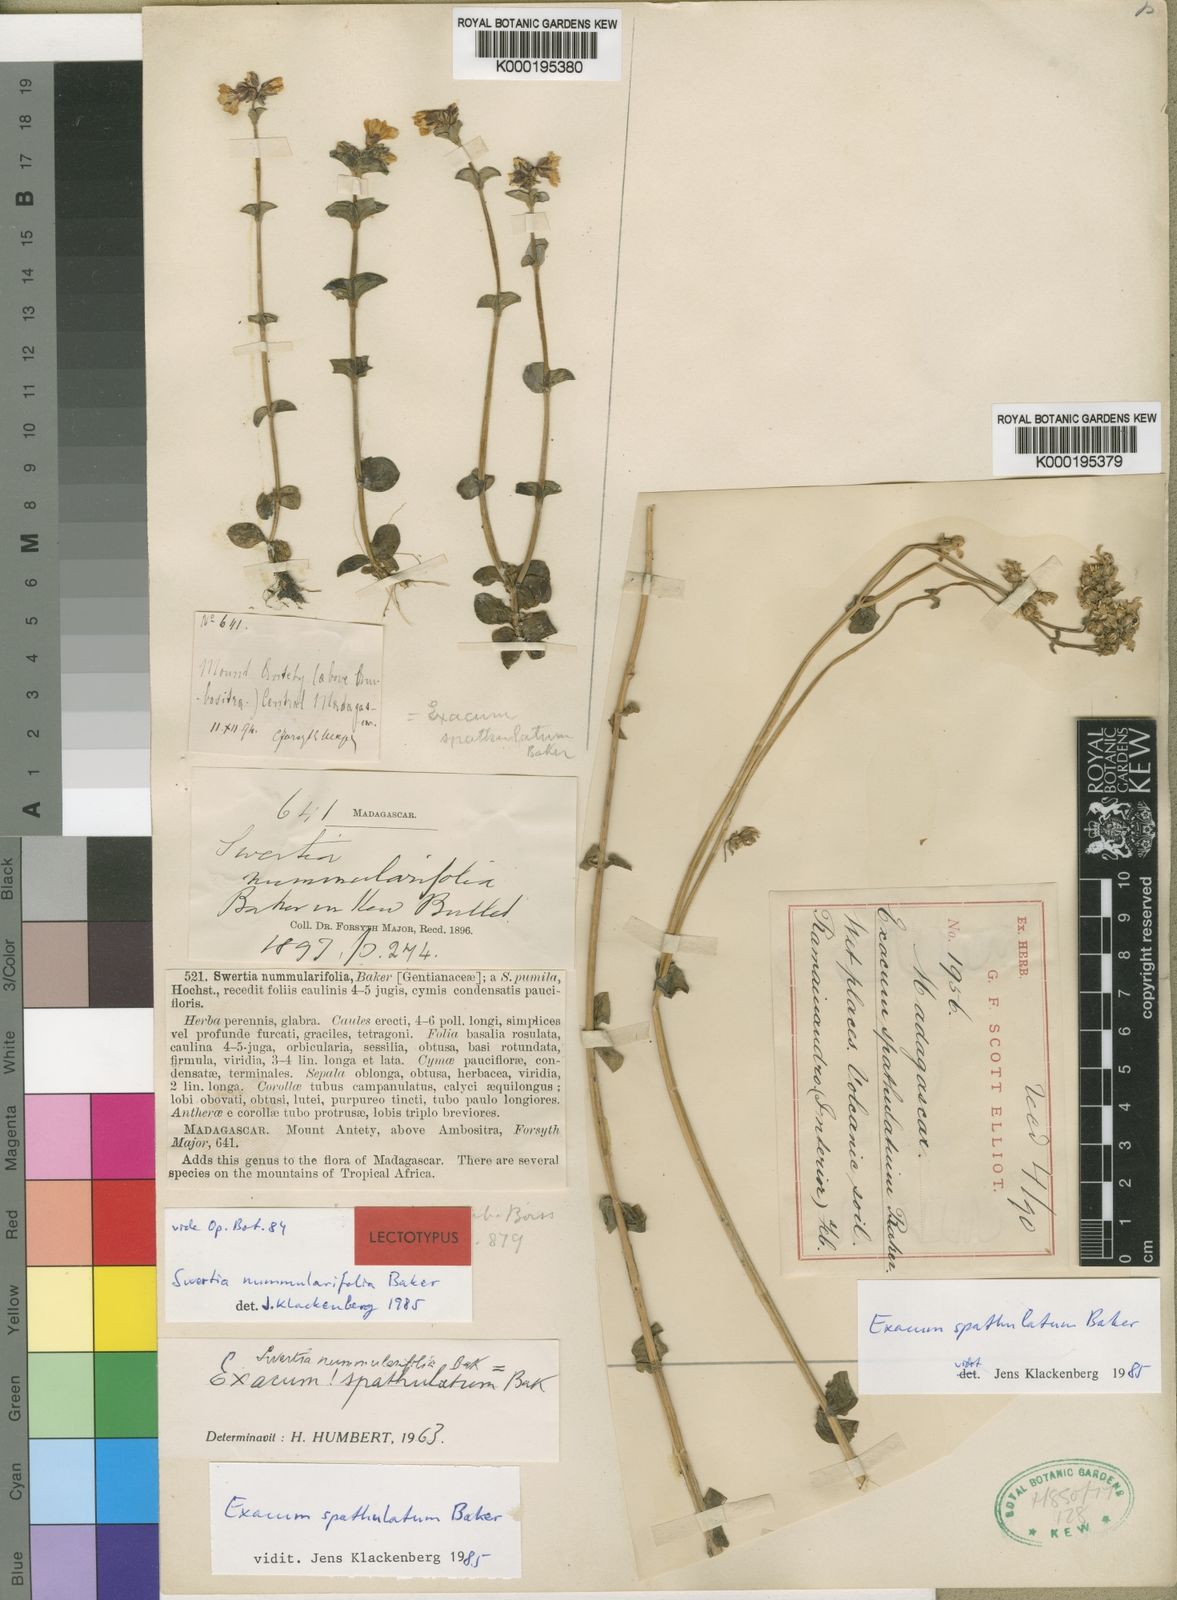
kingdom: Plantae
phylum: Tracheophyta
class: Magnoliopsida
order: Gentianales
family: Gentianaceae
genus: Exacum
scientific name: Exacum spathulatum
